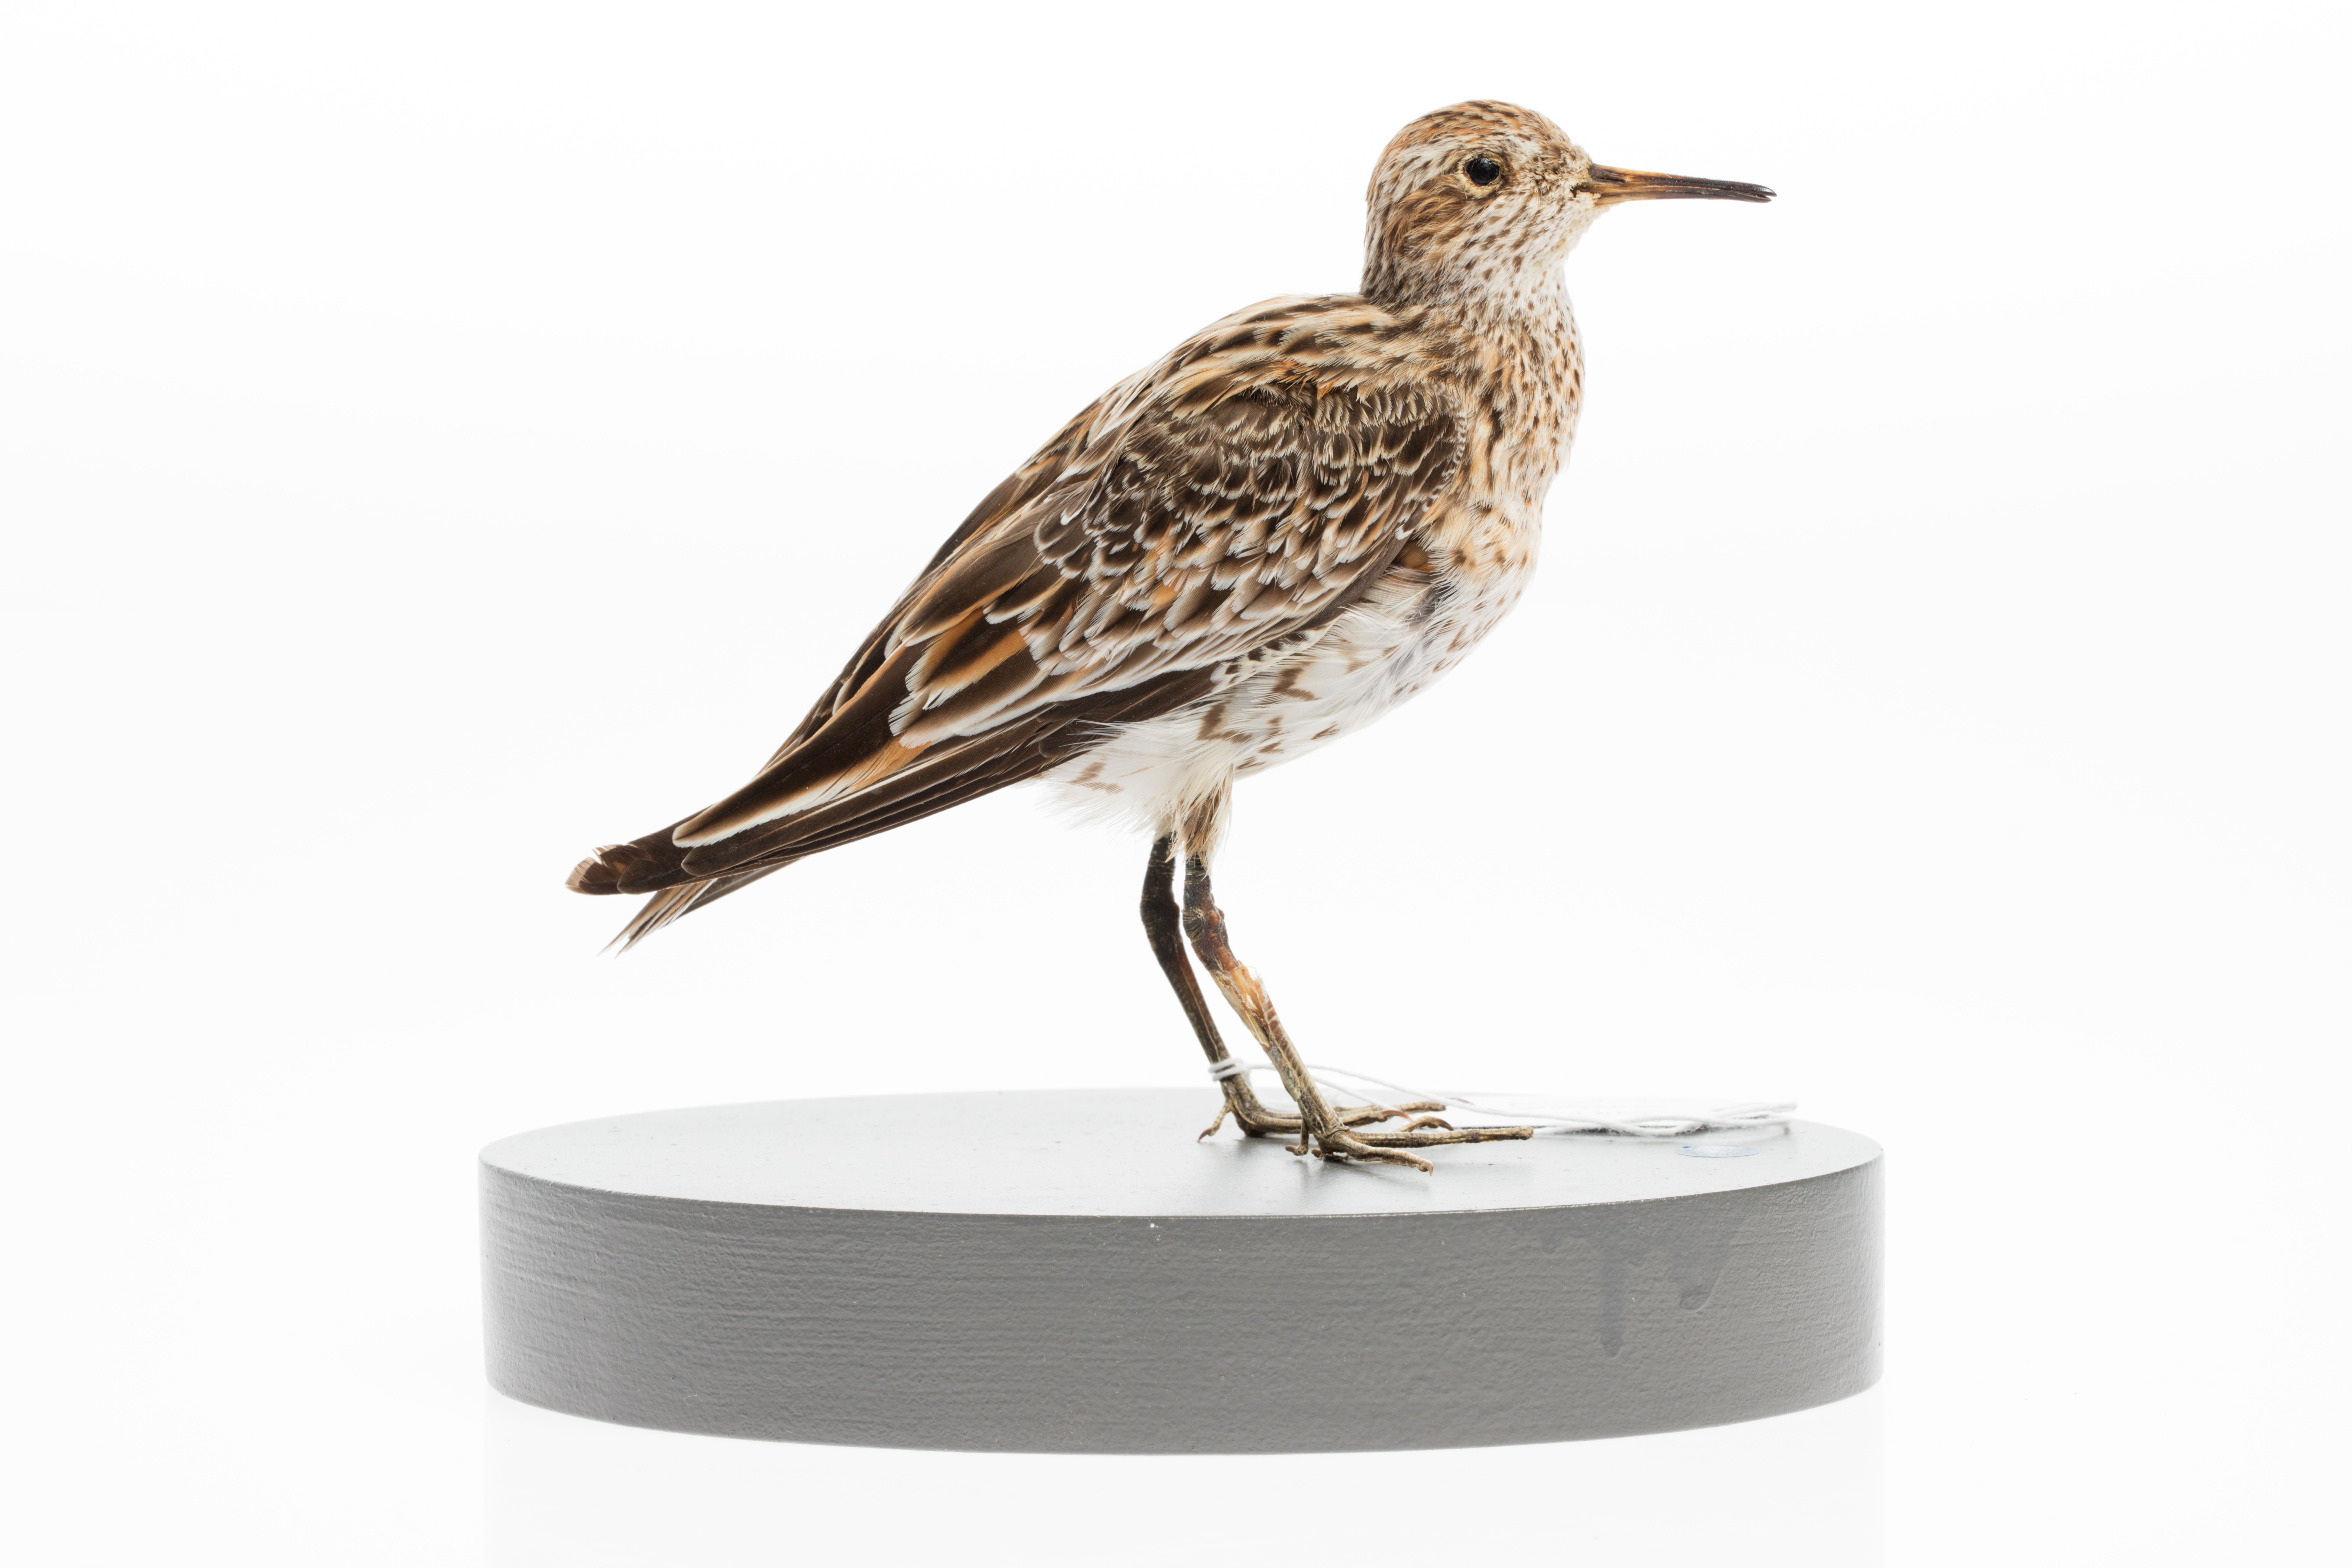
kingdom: Animalia
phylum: Chordata
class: Aves
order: Charadriiformes
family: Scolopacidae
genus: Calidris
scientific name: Calidris acuminata
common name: Sharp-tailed sandpiper
